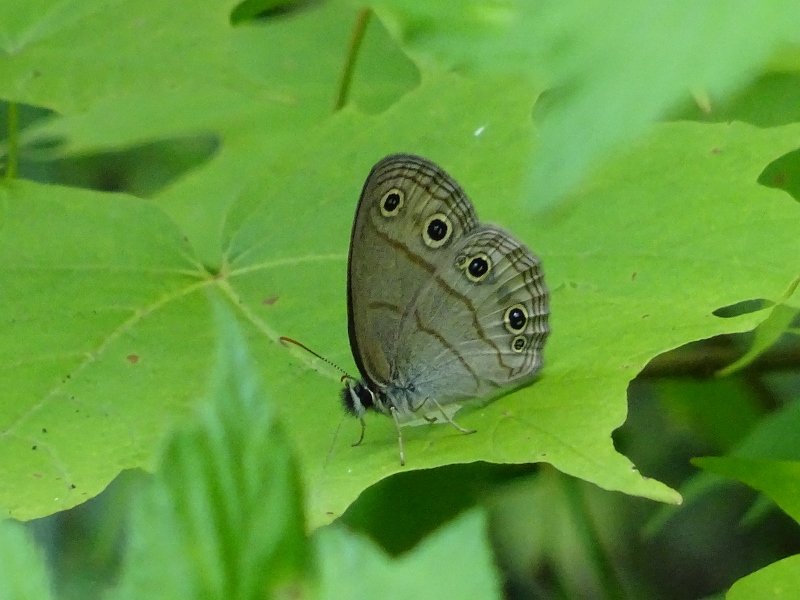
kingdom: Animalia
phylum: Arthropoda
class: Insecta
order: Lepidoptera
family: Nymphalidae
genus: Euptychia
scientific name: Euptychia cymela
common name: Little Wood Satyr
